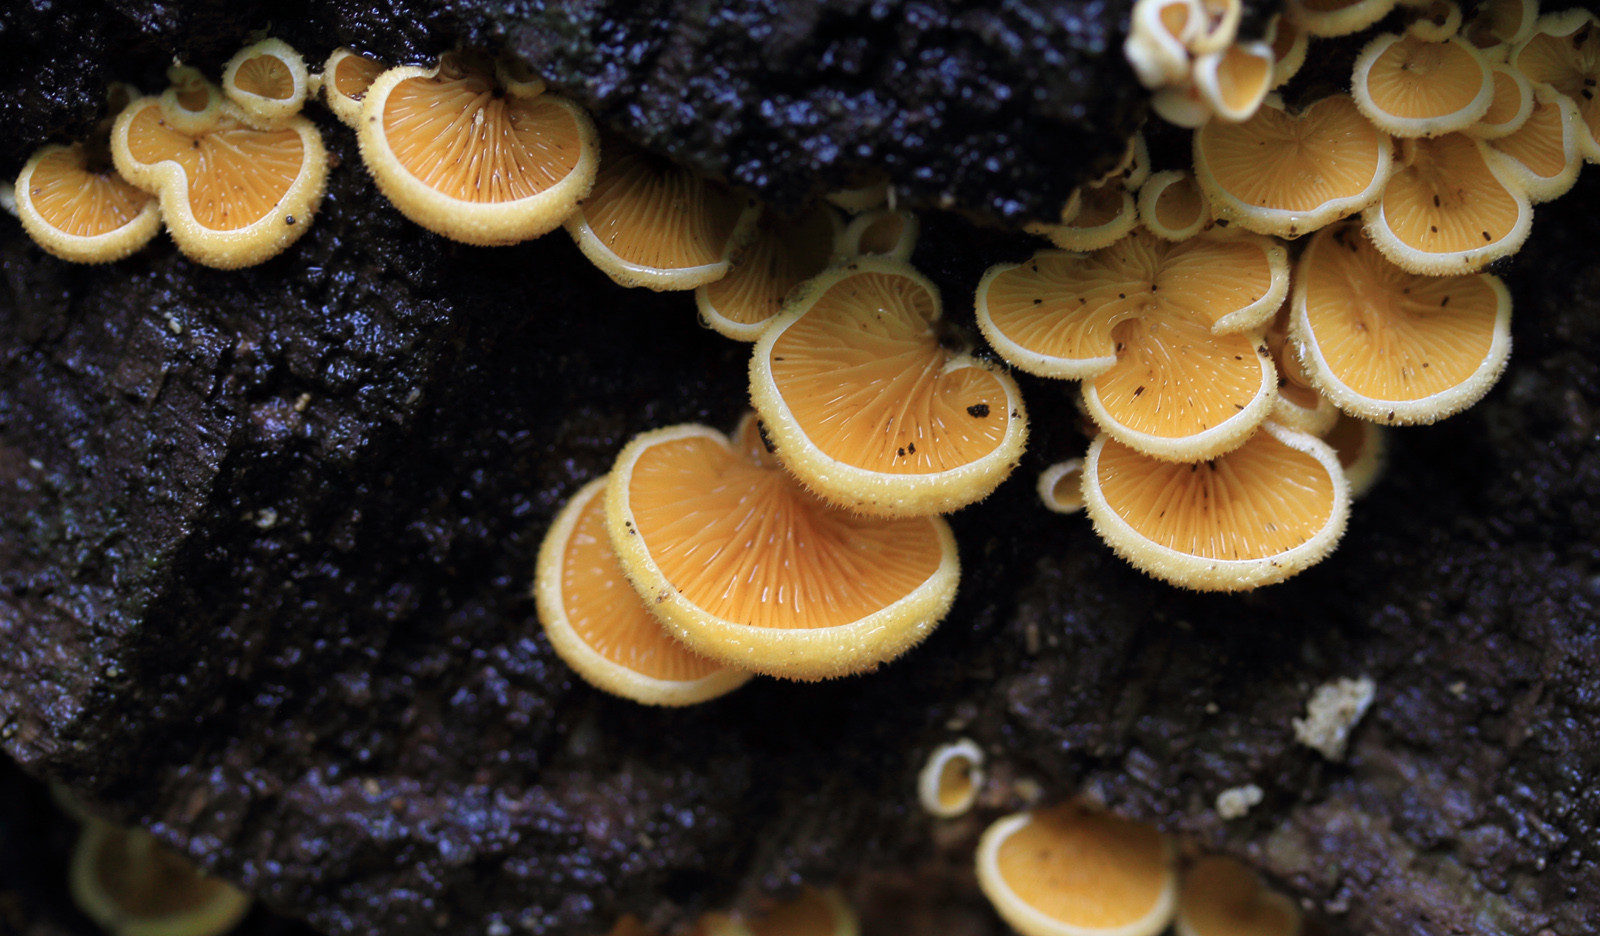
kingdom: Fungi
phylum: Basidiomycota
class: Agaricomycetes
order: Agaricales
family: Phyllotopsidaceae
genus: Phyllotopsis
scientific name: Phyllotopsis nidulans
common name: okkerblad
